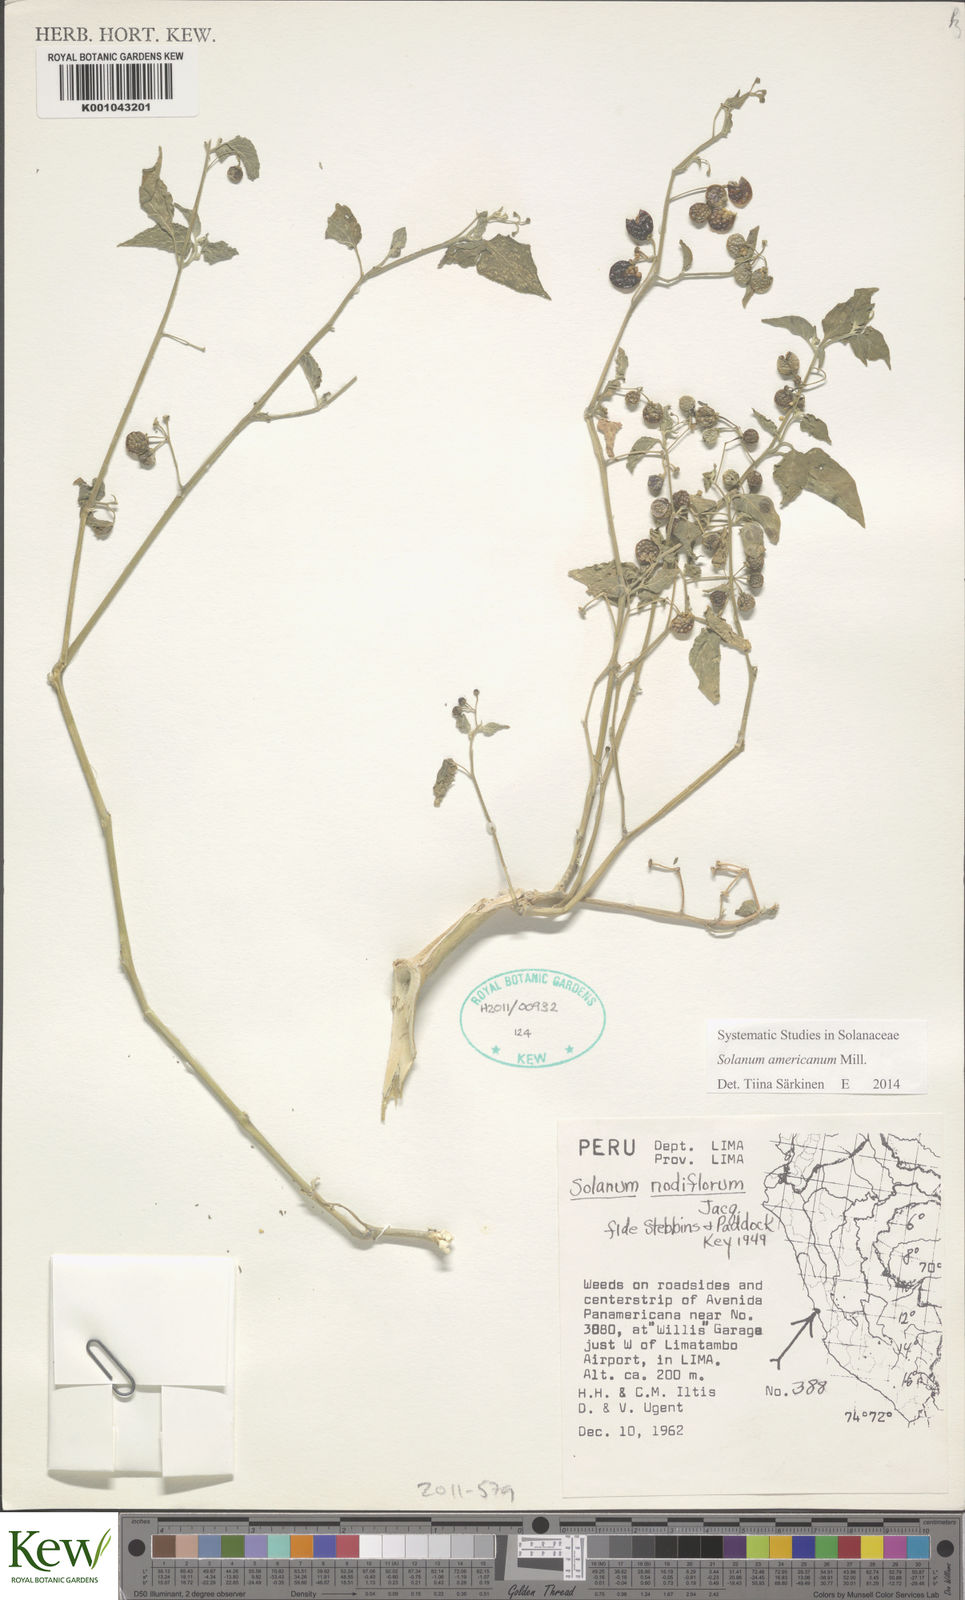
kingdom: Plantae
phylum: Tracheophyta
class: Magnoliopsida
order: Solanales
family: Solanaceae
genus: Solanum
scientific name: Solanum americanum
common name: American black nightshade
